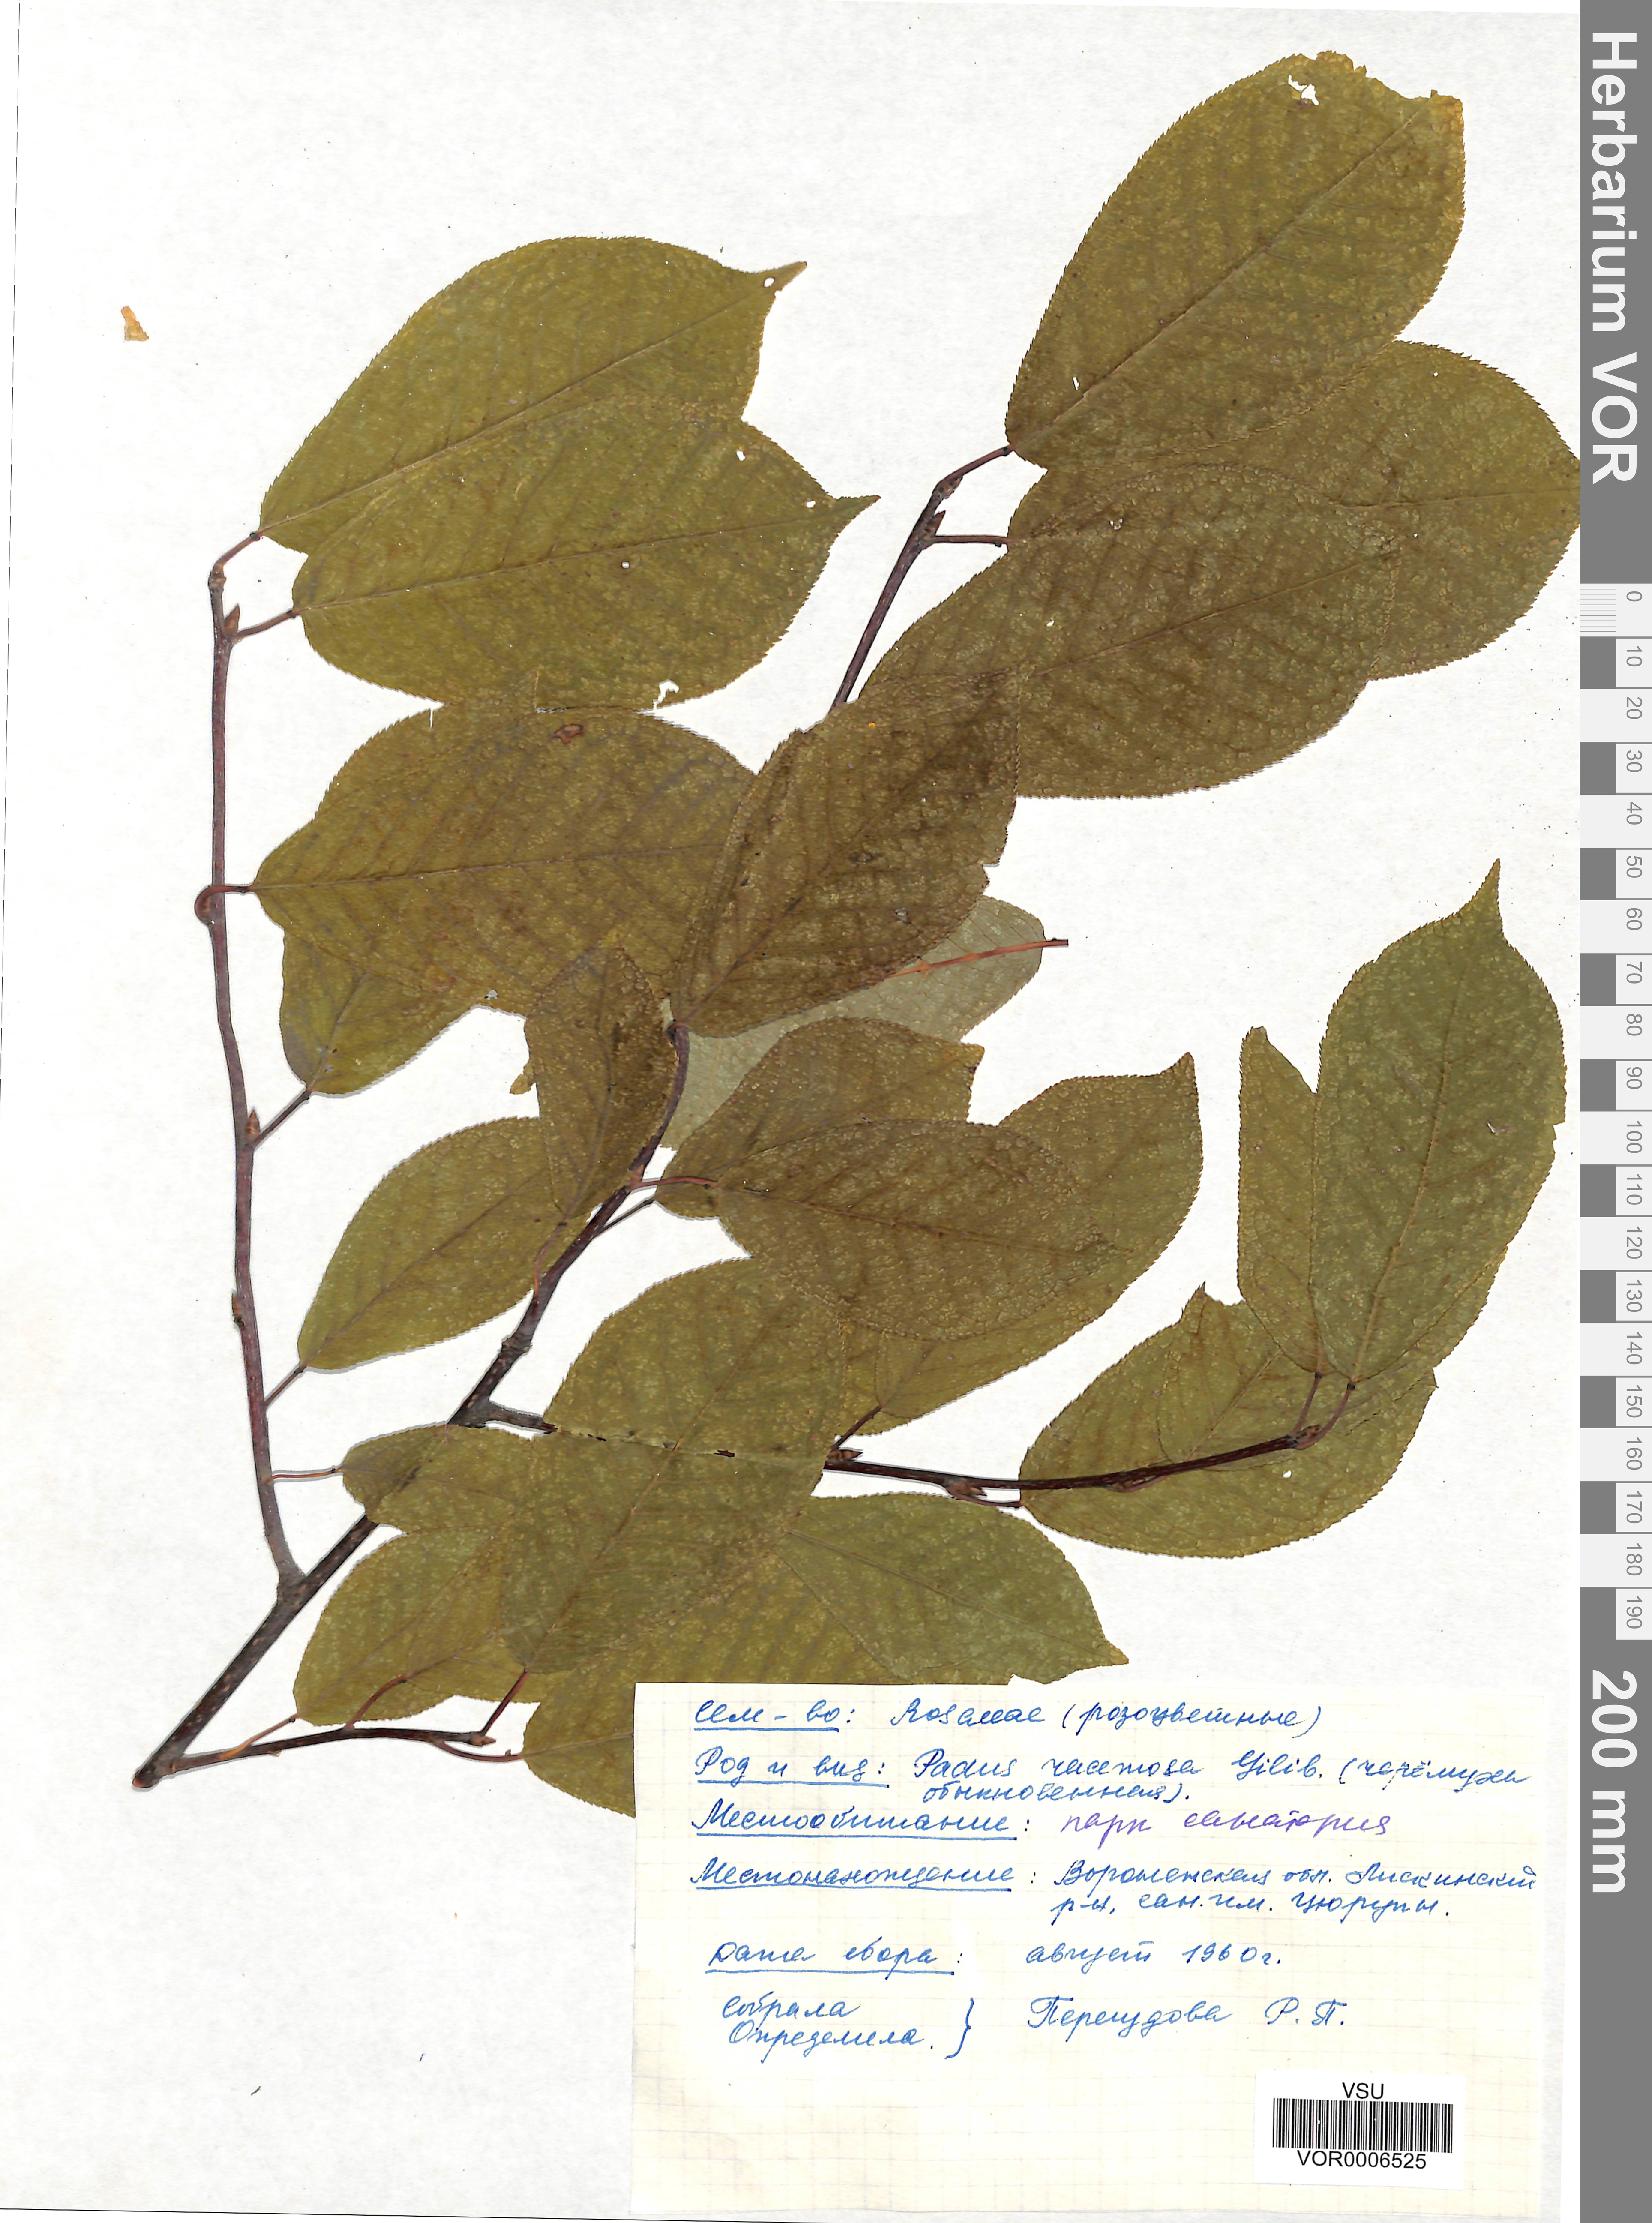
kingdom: Plantae
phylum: Tracheophyta
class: Magnoliopsida
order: Rosales
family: Rosaceae
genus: Prunus
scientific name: Prunus padus
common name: Bird cherry
